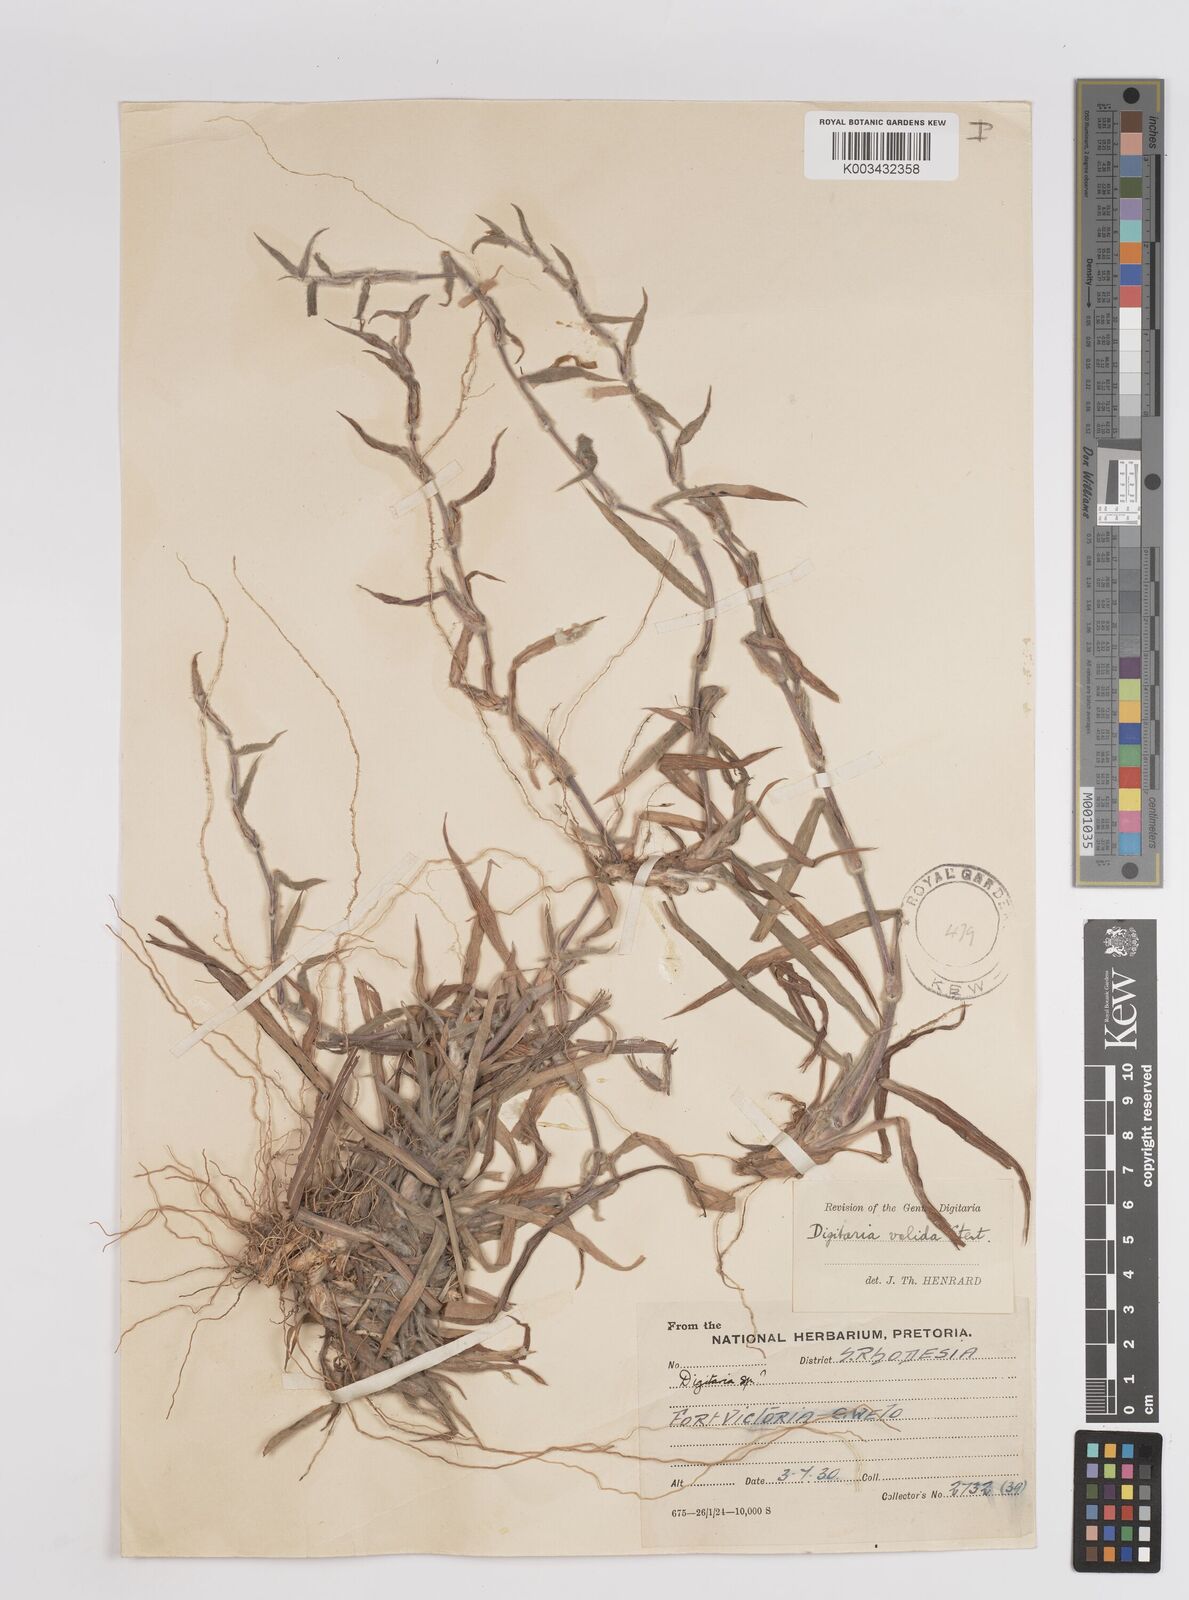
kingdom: Plantae
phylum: Tracheophyta
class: Liliopsida
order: Poales
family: Poaceae
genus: Digitaria
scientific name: Digitaria eriantha
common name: Digitgrass
